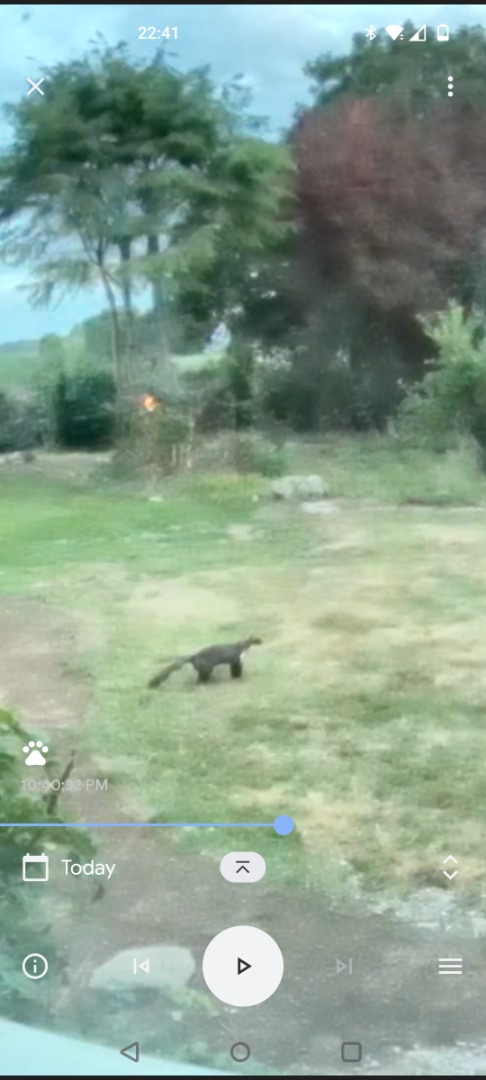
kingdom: Animalia
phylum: Chordata
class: Mammalia
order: Carnivora
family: Mustelidae
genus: Martes
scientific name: Martes foina
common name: Husmår
